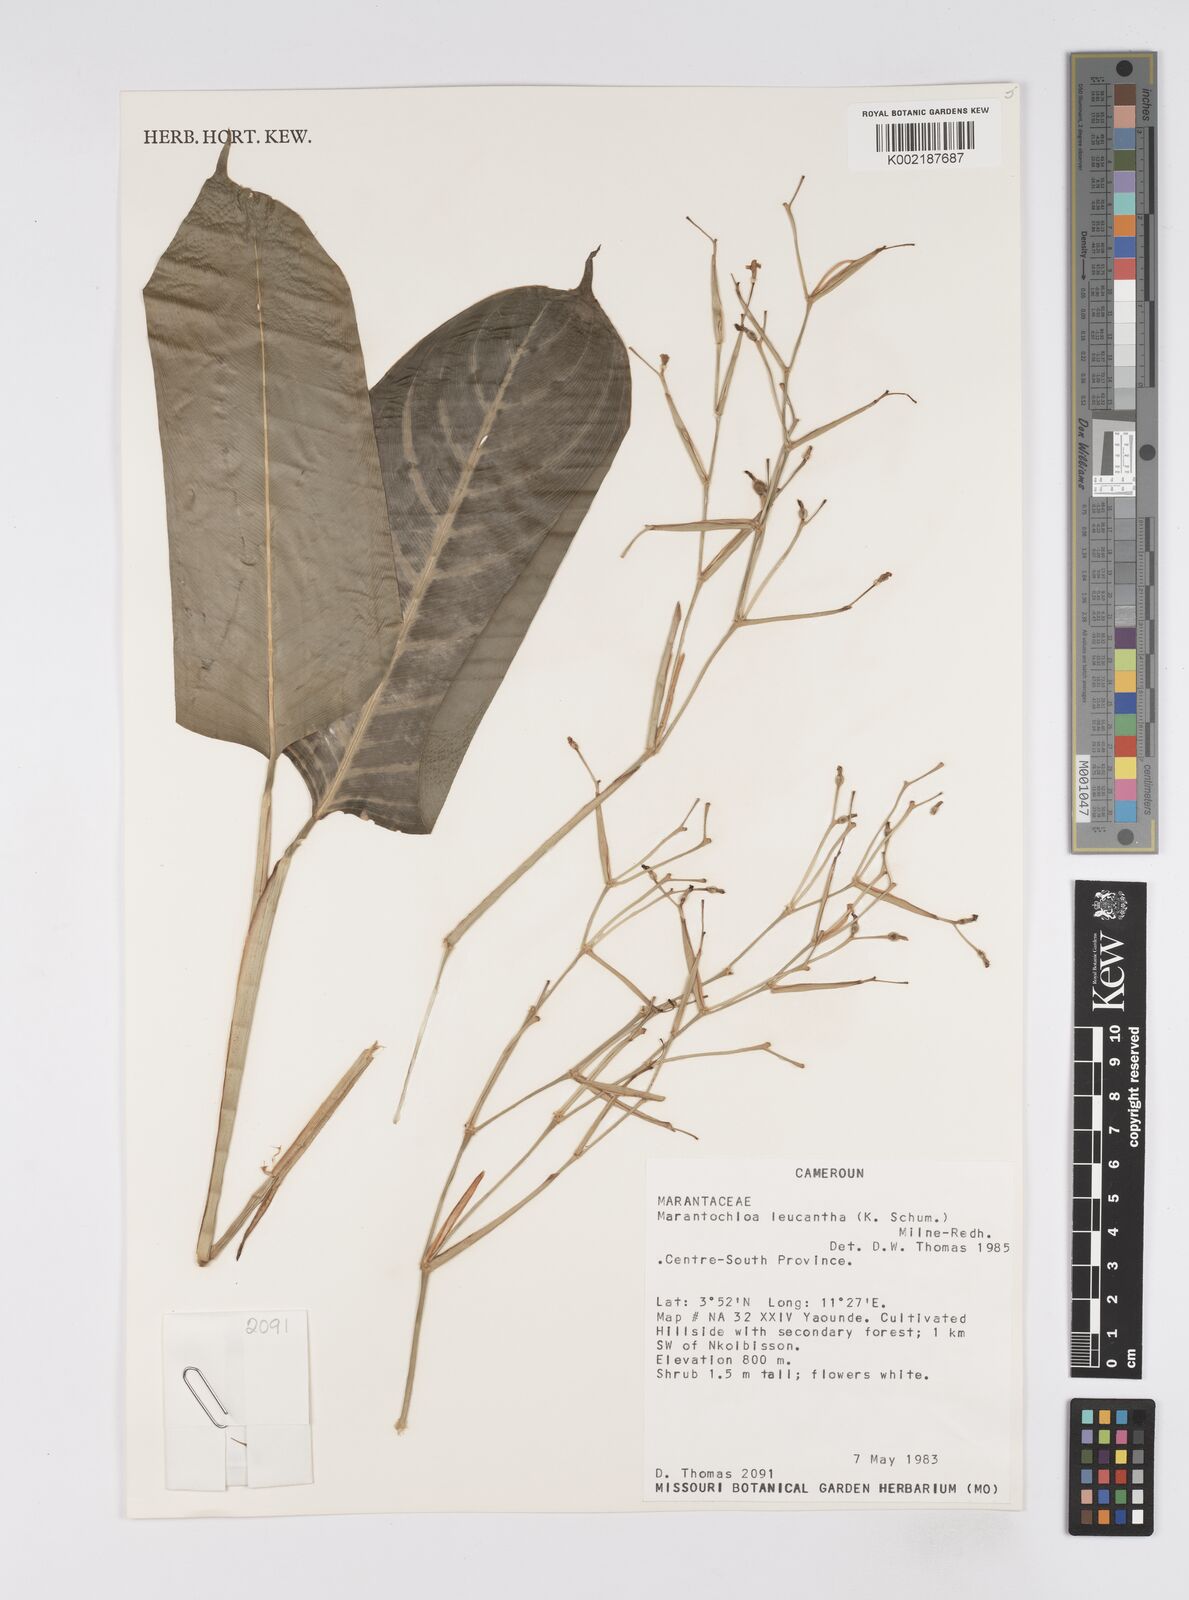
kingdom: Plantae
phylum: Tracheophyta
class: Liliopsida
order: Zingiberales
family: Marantaceae
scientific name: Marantaceae
